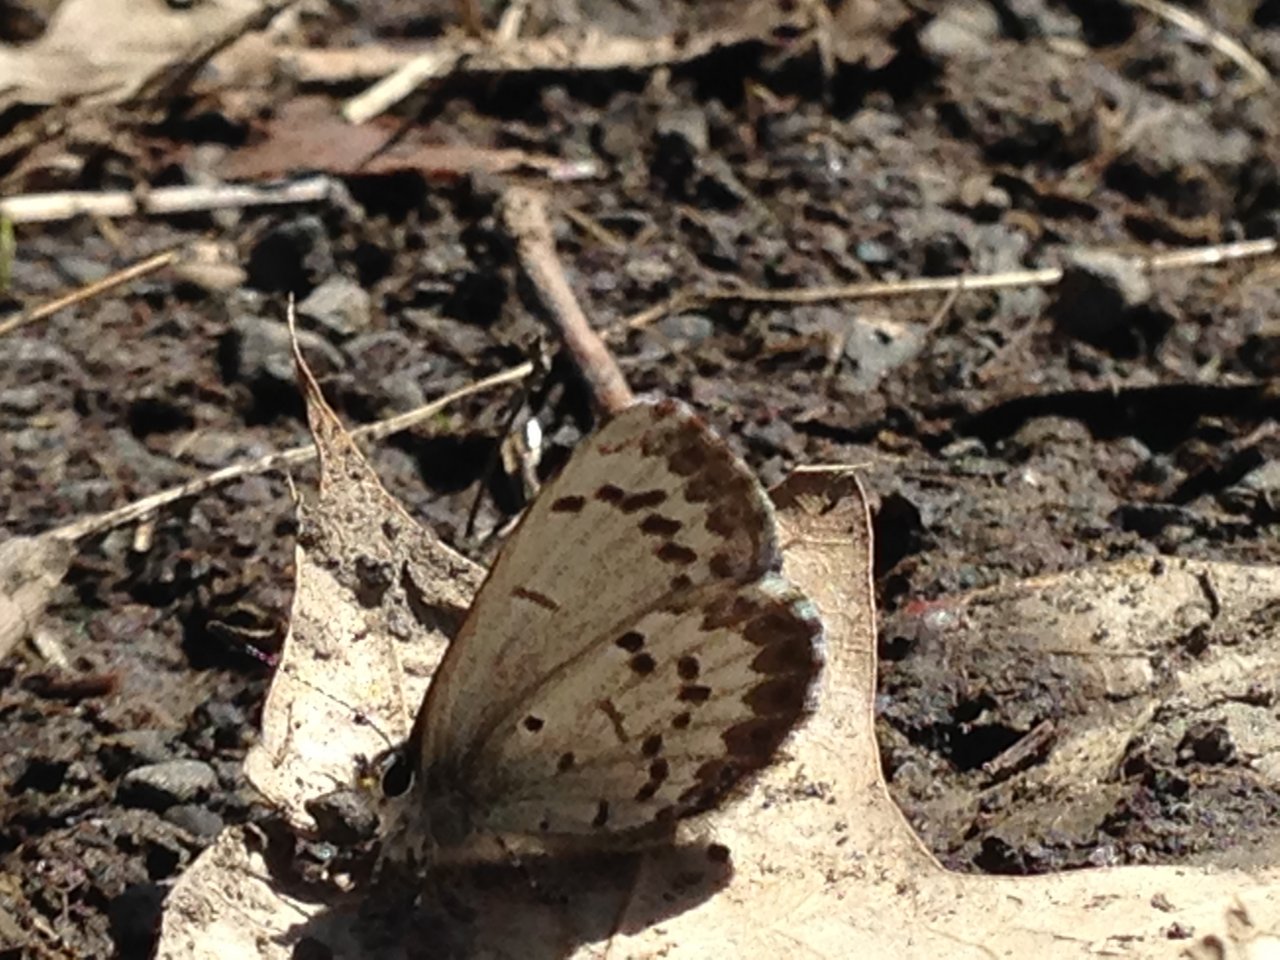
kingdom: Animalia
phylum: Arthropoda
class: Insecta
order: Lepidoptera
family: Lycaenidae
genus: Celastrina
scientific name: Celastrina lucia
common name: Northern Spring Azure
